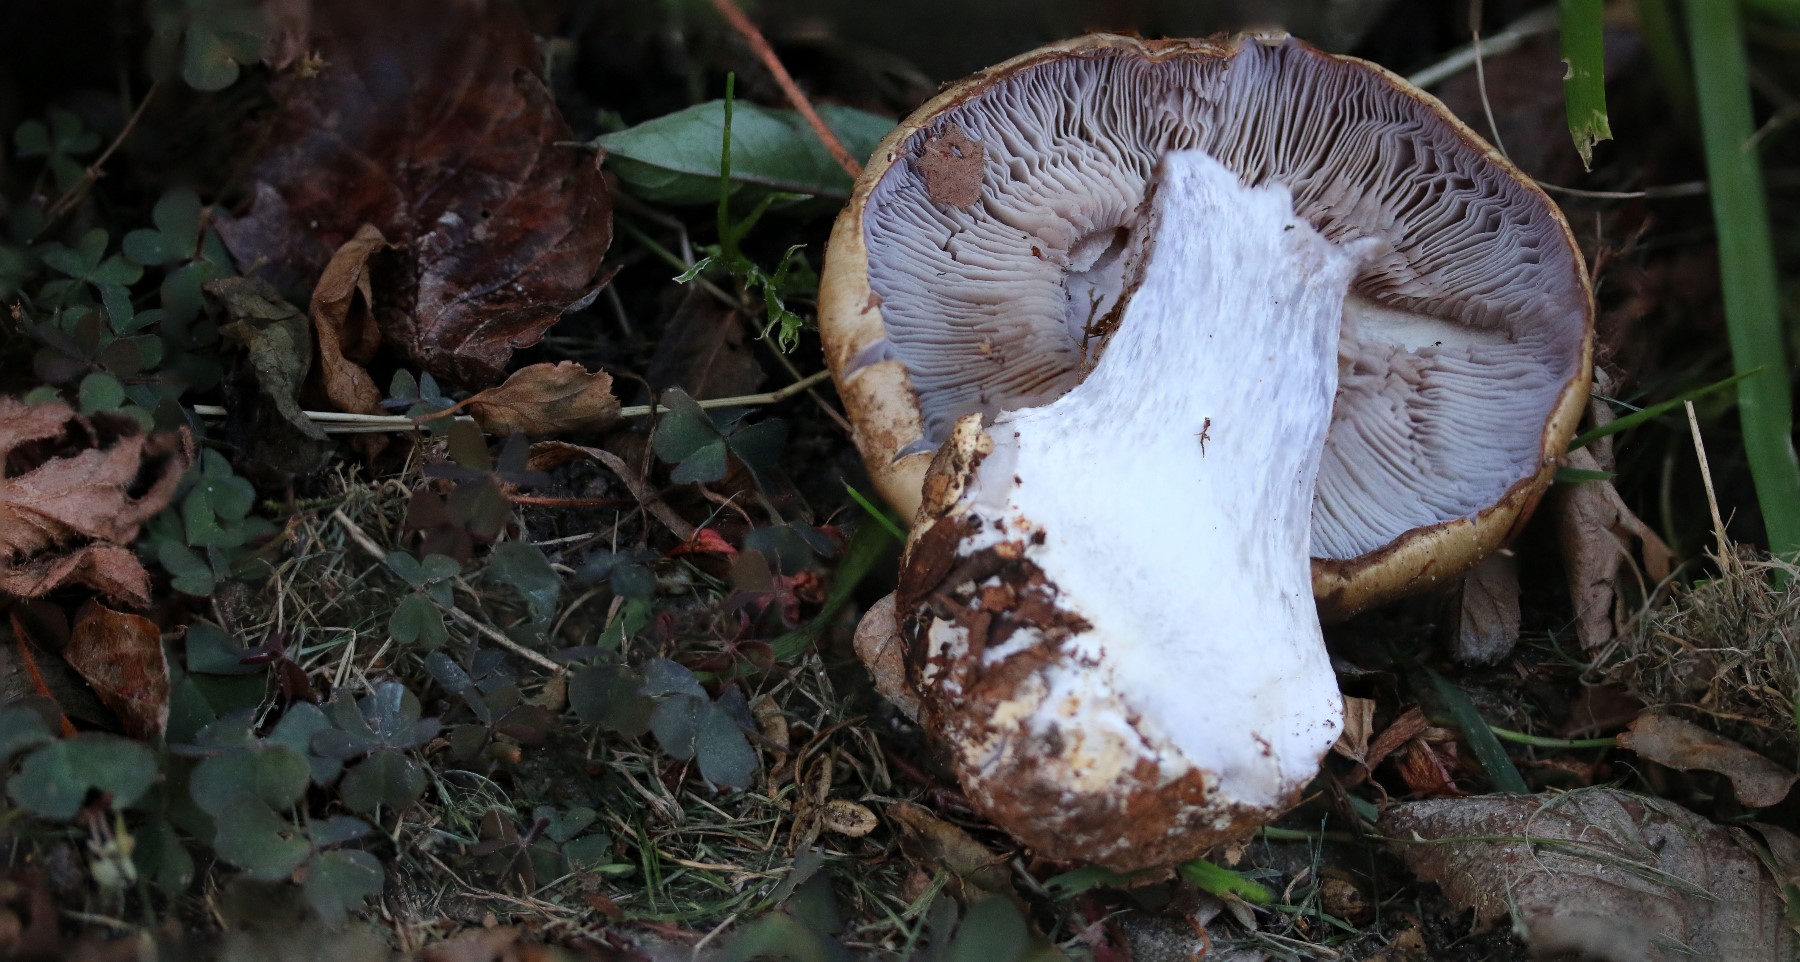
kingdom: Fungi
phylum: Basidiomycota
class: Agaricomycetes
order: Agaricales
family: Cortinariaceae
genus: Cortinarius
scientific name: Cortinarius anserinus
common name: bøge-slørhat
